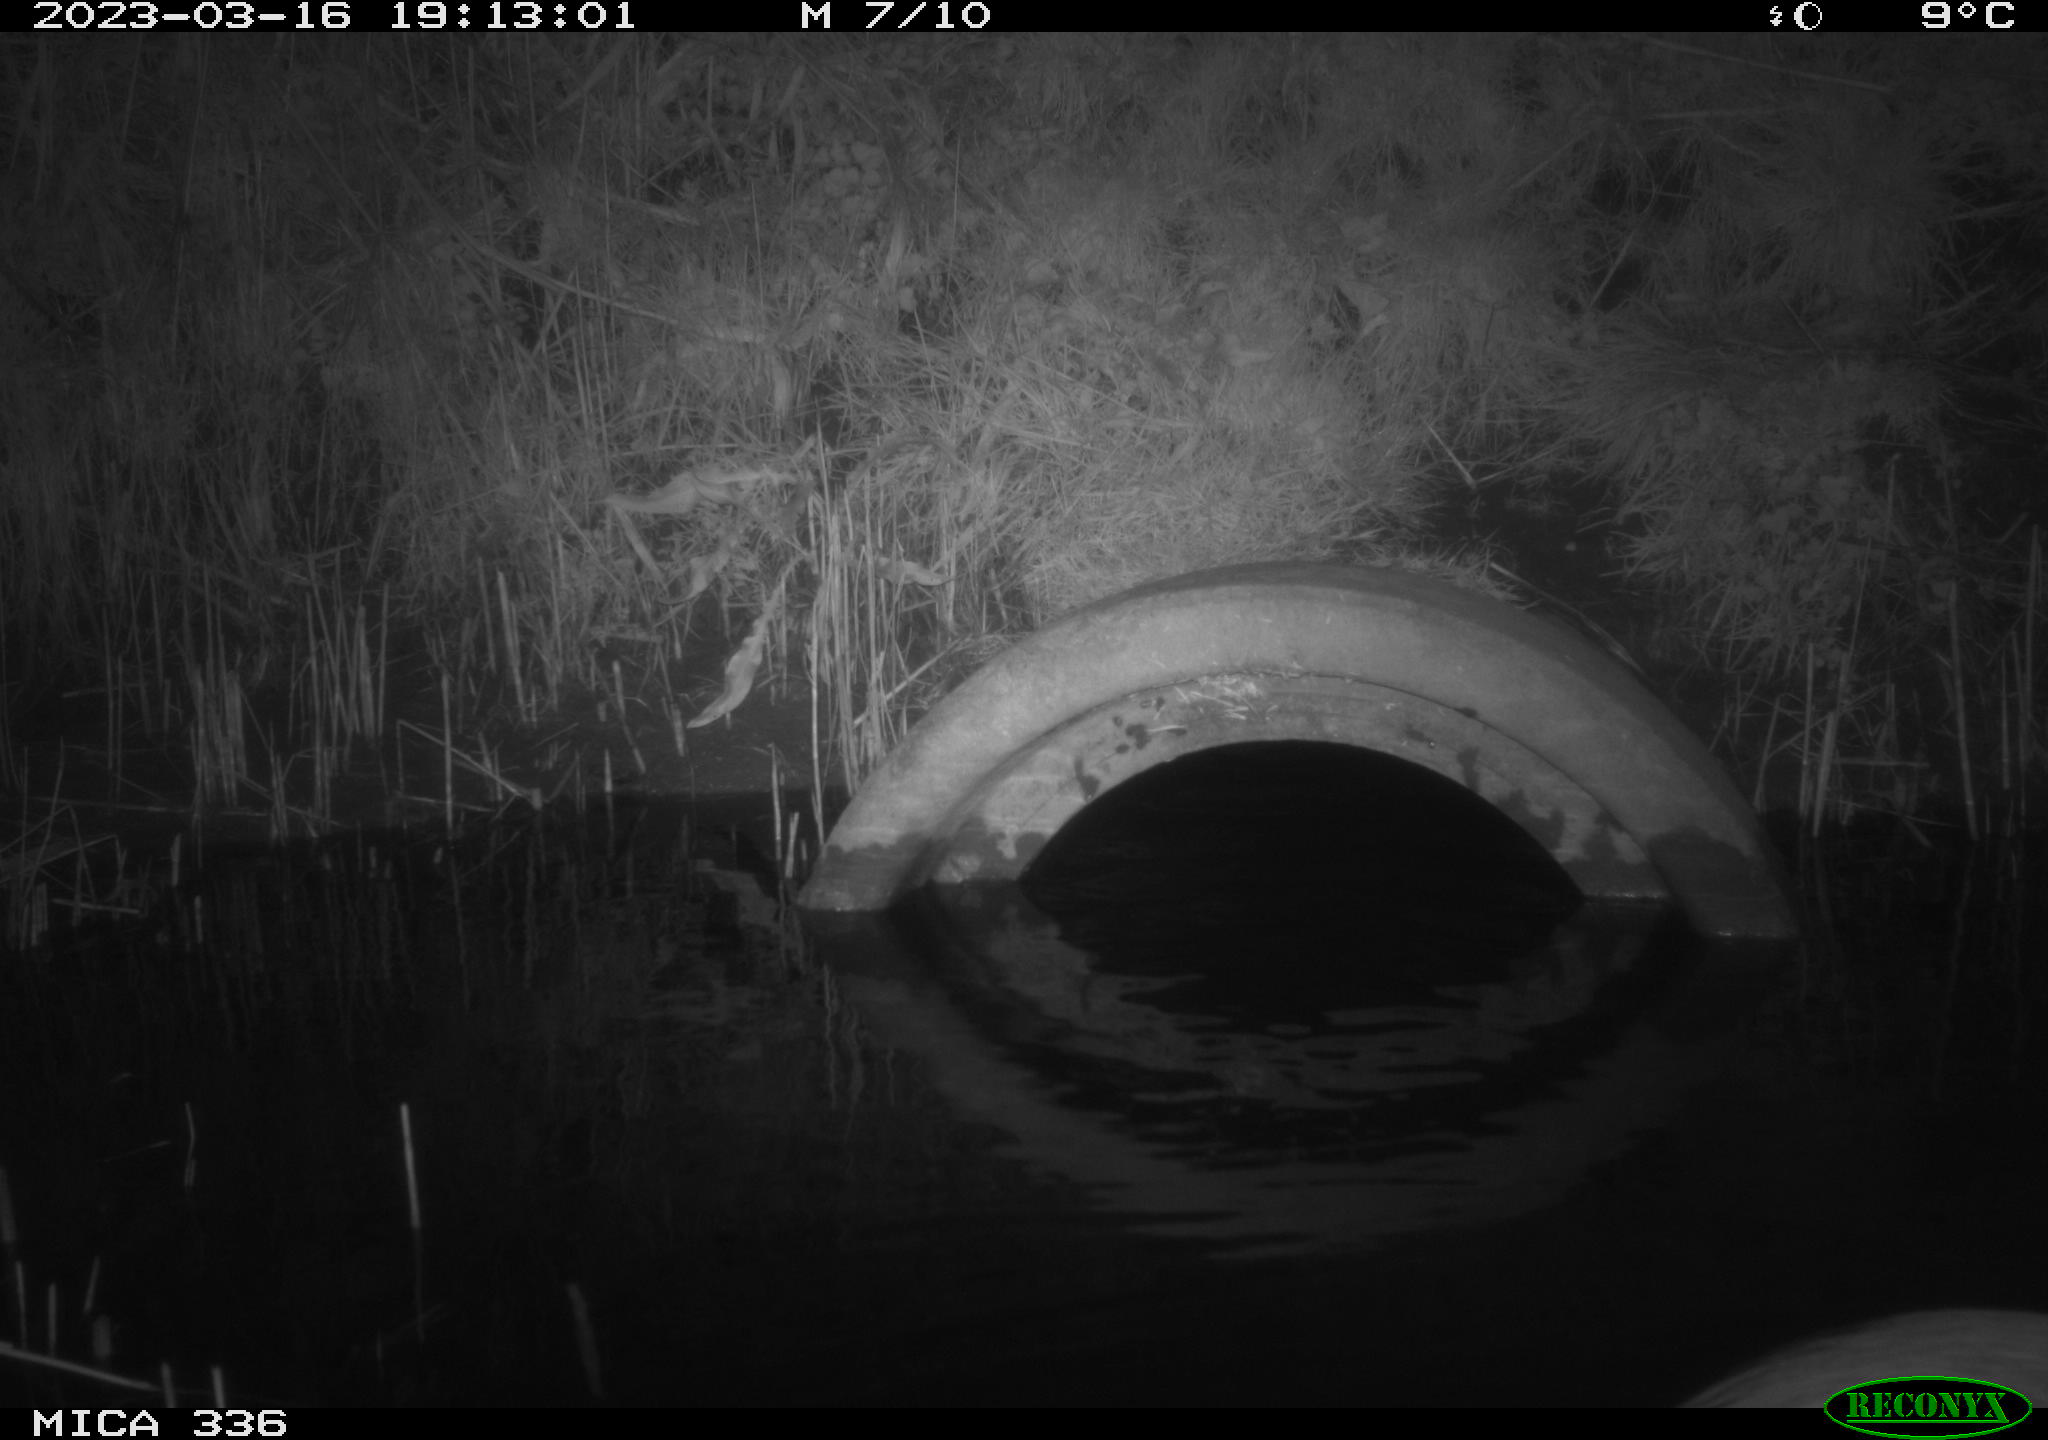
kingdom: Animalia
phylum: Chordata
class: Aves
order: Pelecaniformes
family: Ardeidae
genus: Ardea
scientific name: Ardea cinerea
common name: Grey heron
